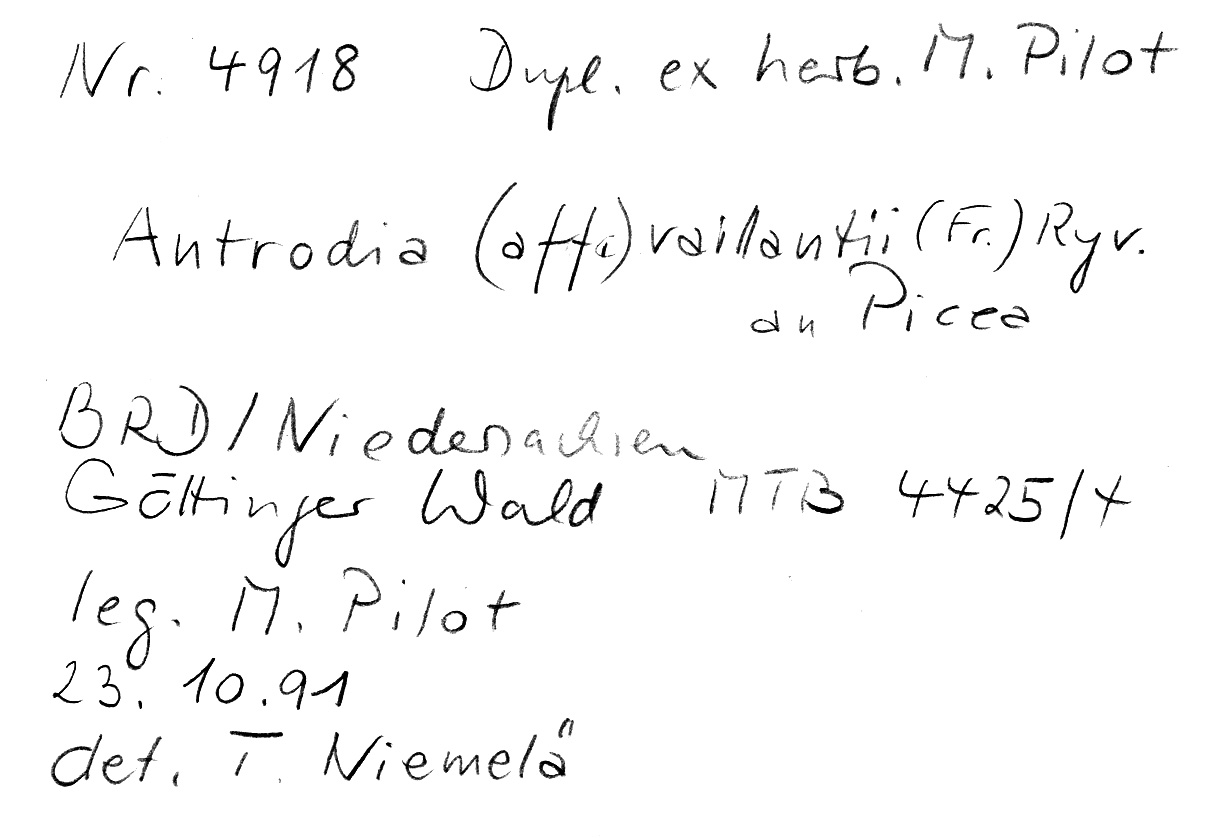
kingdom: Plantae
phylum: Tracheophyta
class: Pinopsida
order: Pinales
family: Pinaceae
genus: Picea
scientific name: Picea
